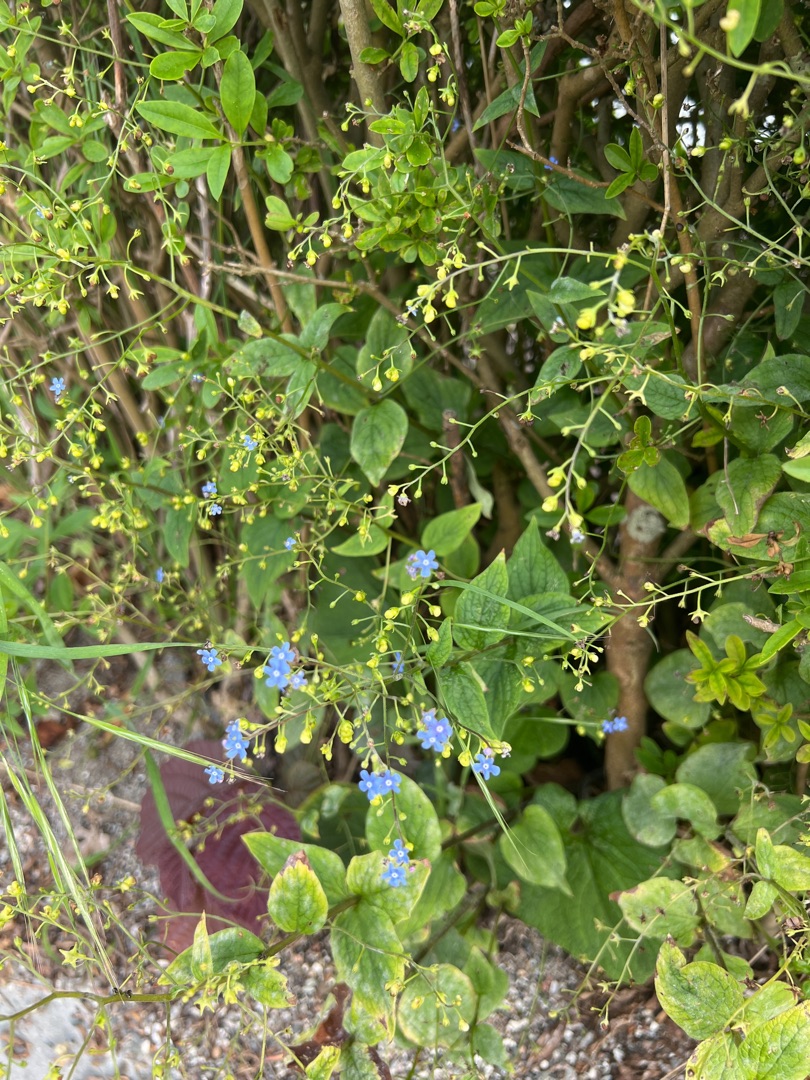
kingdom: Plantae
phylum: Tracheophyta
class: Magnoliopsida
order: Boraginales
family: Boraginaceae
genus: Brunnera
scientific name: Brunnera macrophylla
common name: Kærmindesøster
